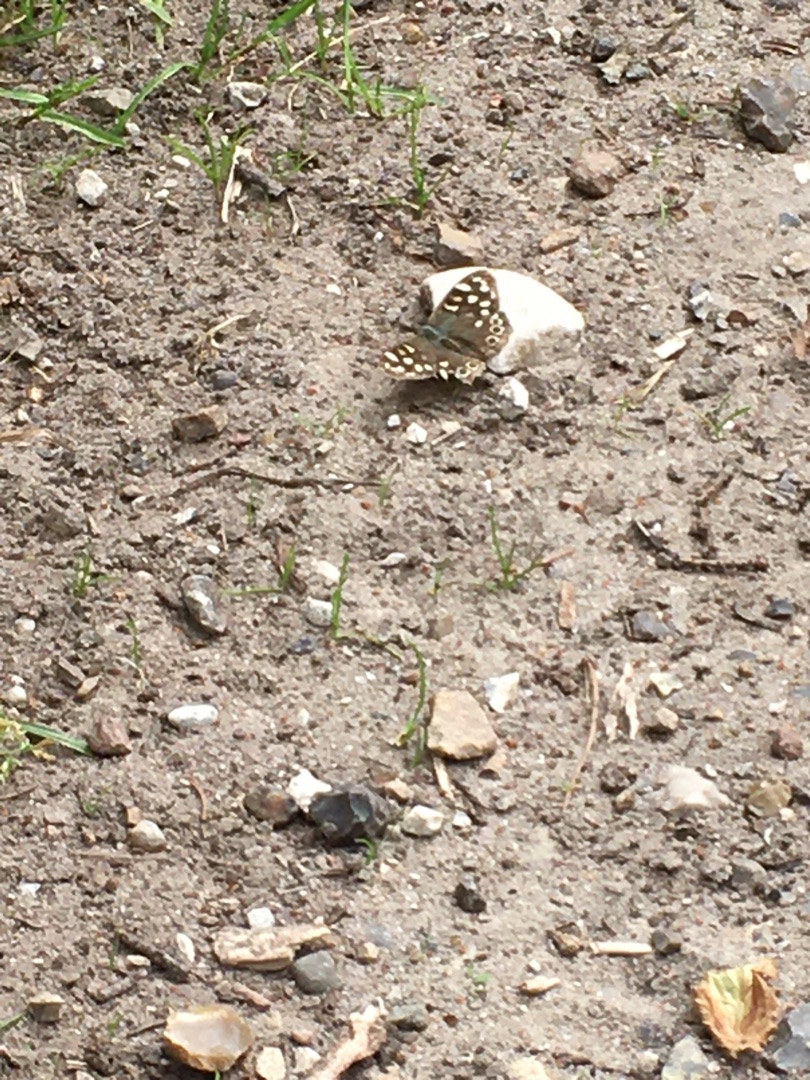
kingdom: Animalia
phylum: Arthropoda
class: Insecta
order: Lepidoptera
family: Nymphalidae
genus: Pararge
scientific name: Pararge aegeria
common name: Skovrandøje
